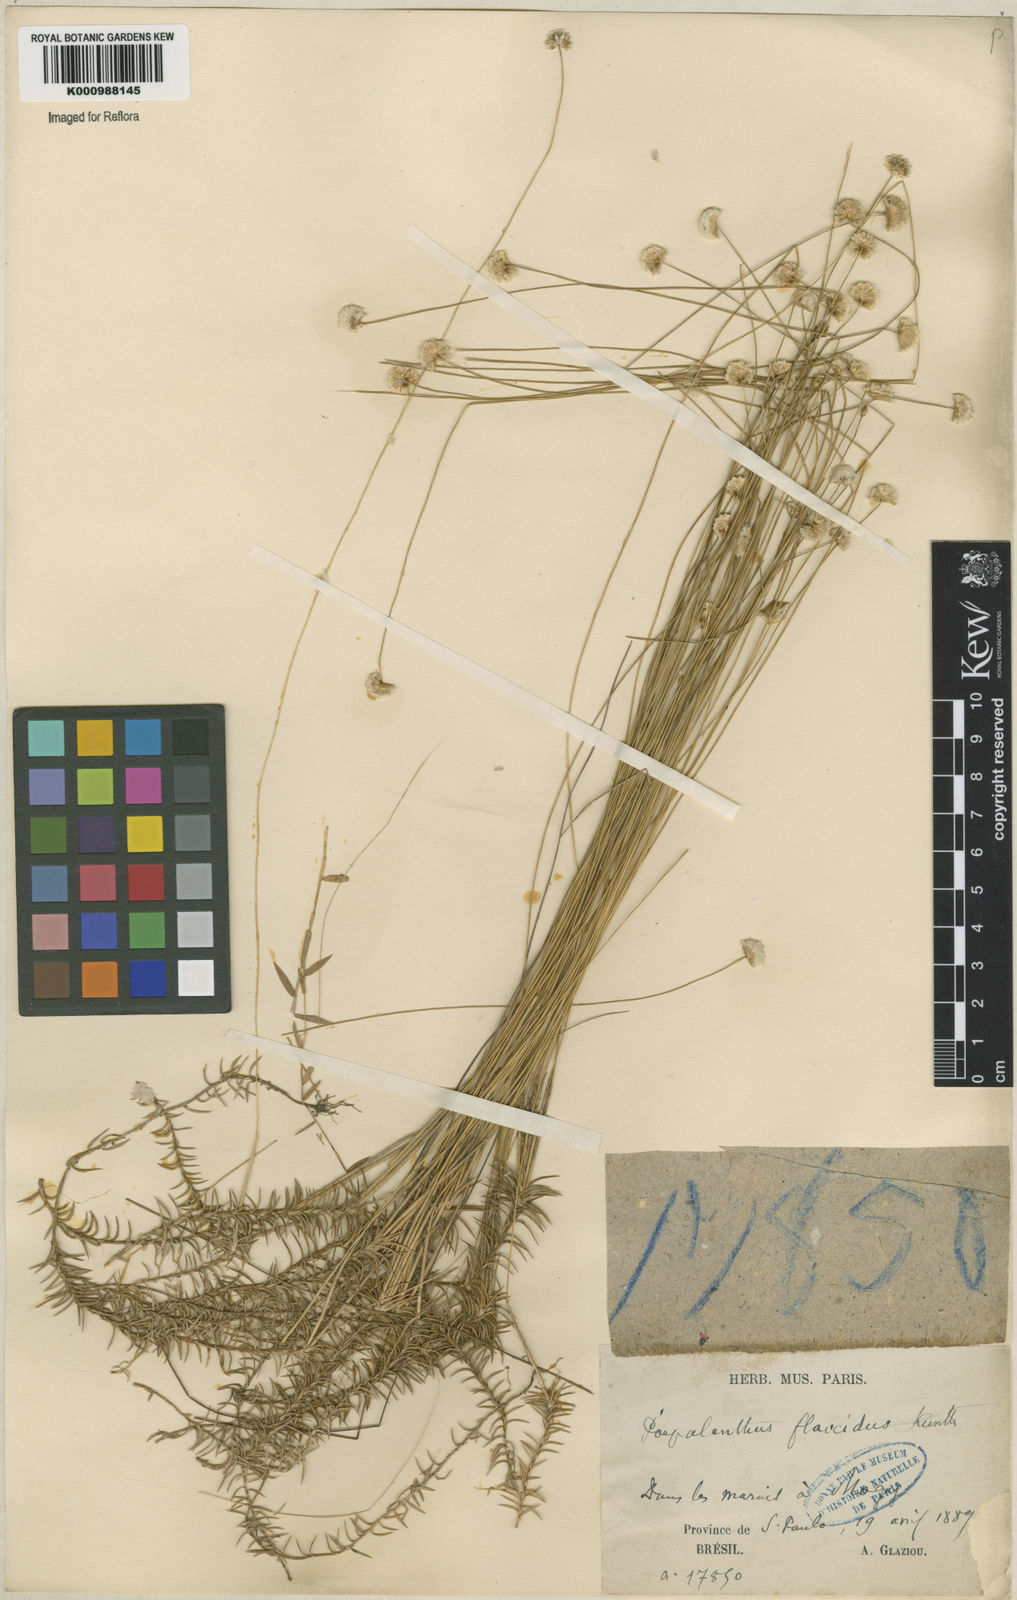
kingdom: Plantae
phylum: Tracheophyta
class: Liliopsida
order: Poales
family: Eriocaulaceae
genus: Paepalanthus
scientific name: Paepalanthus flaccidus
